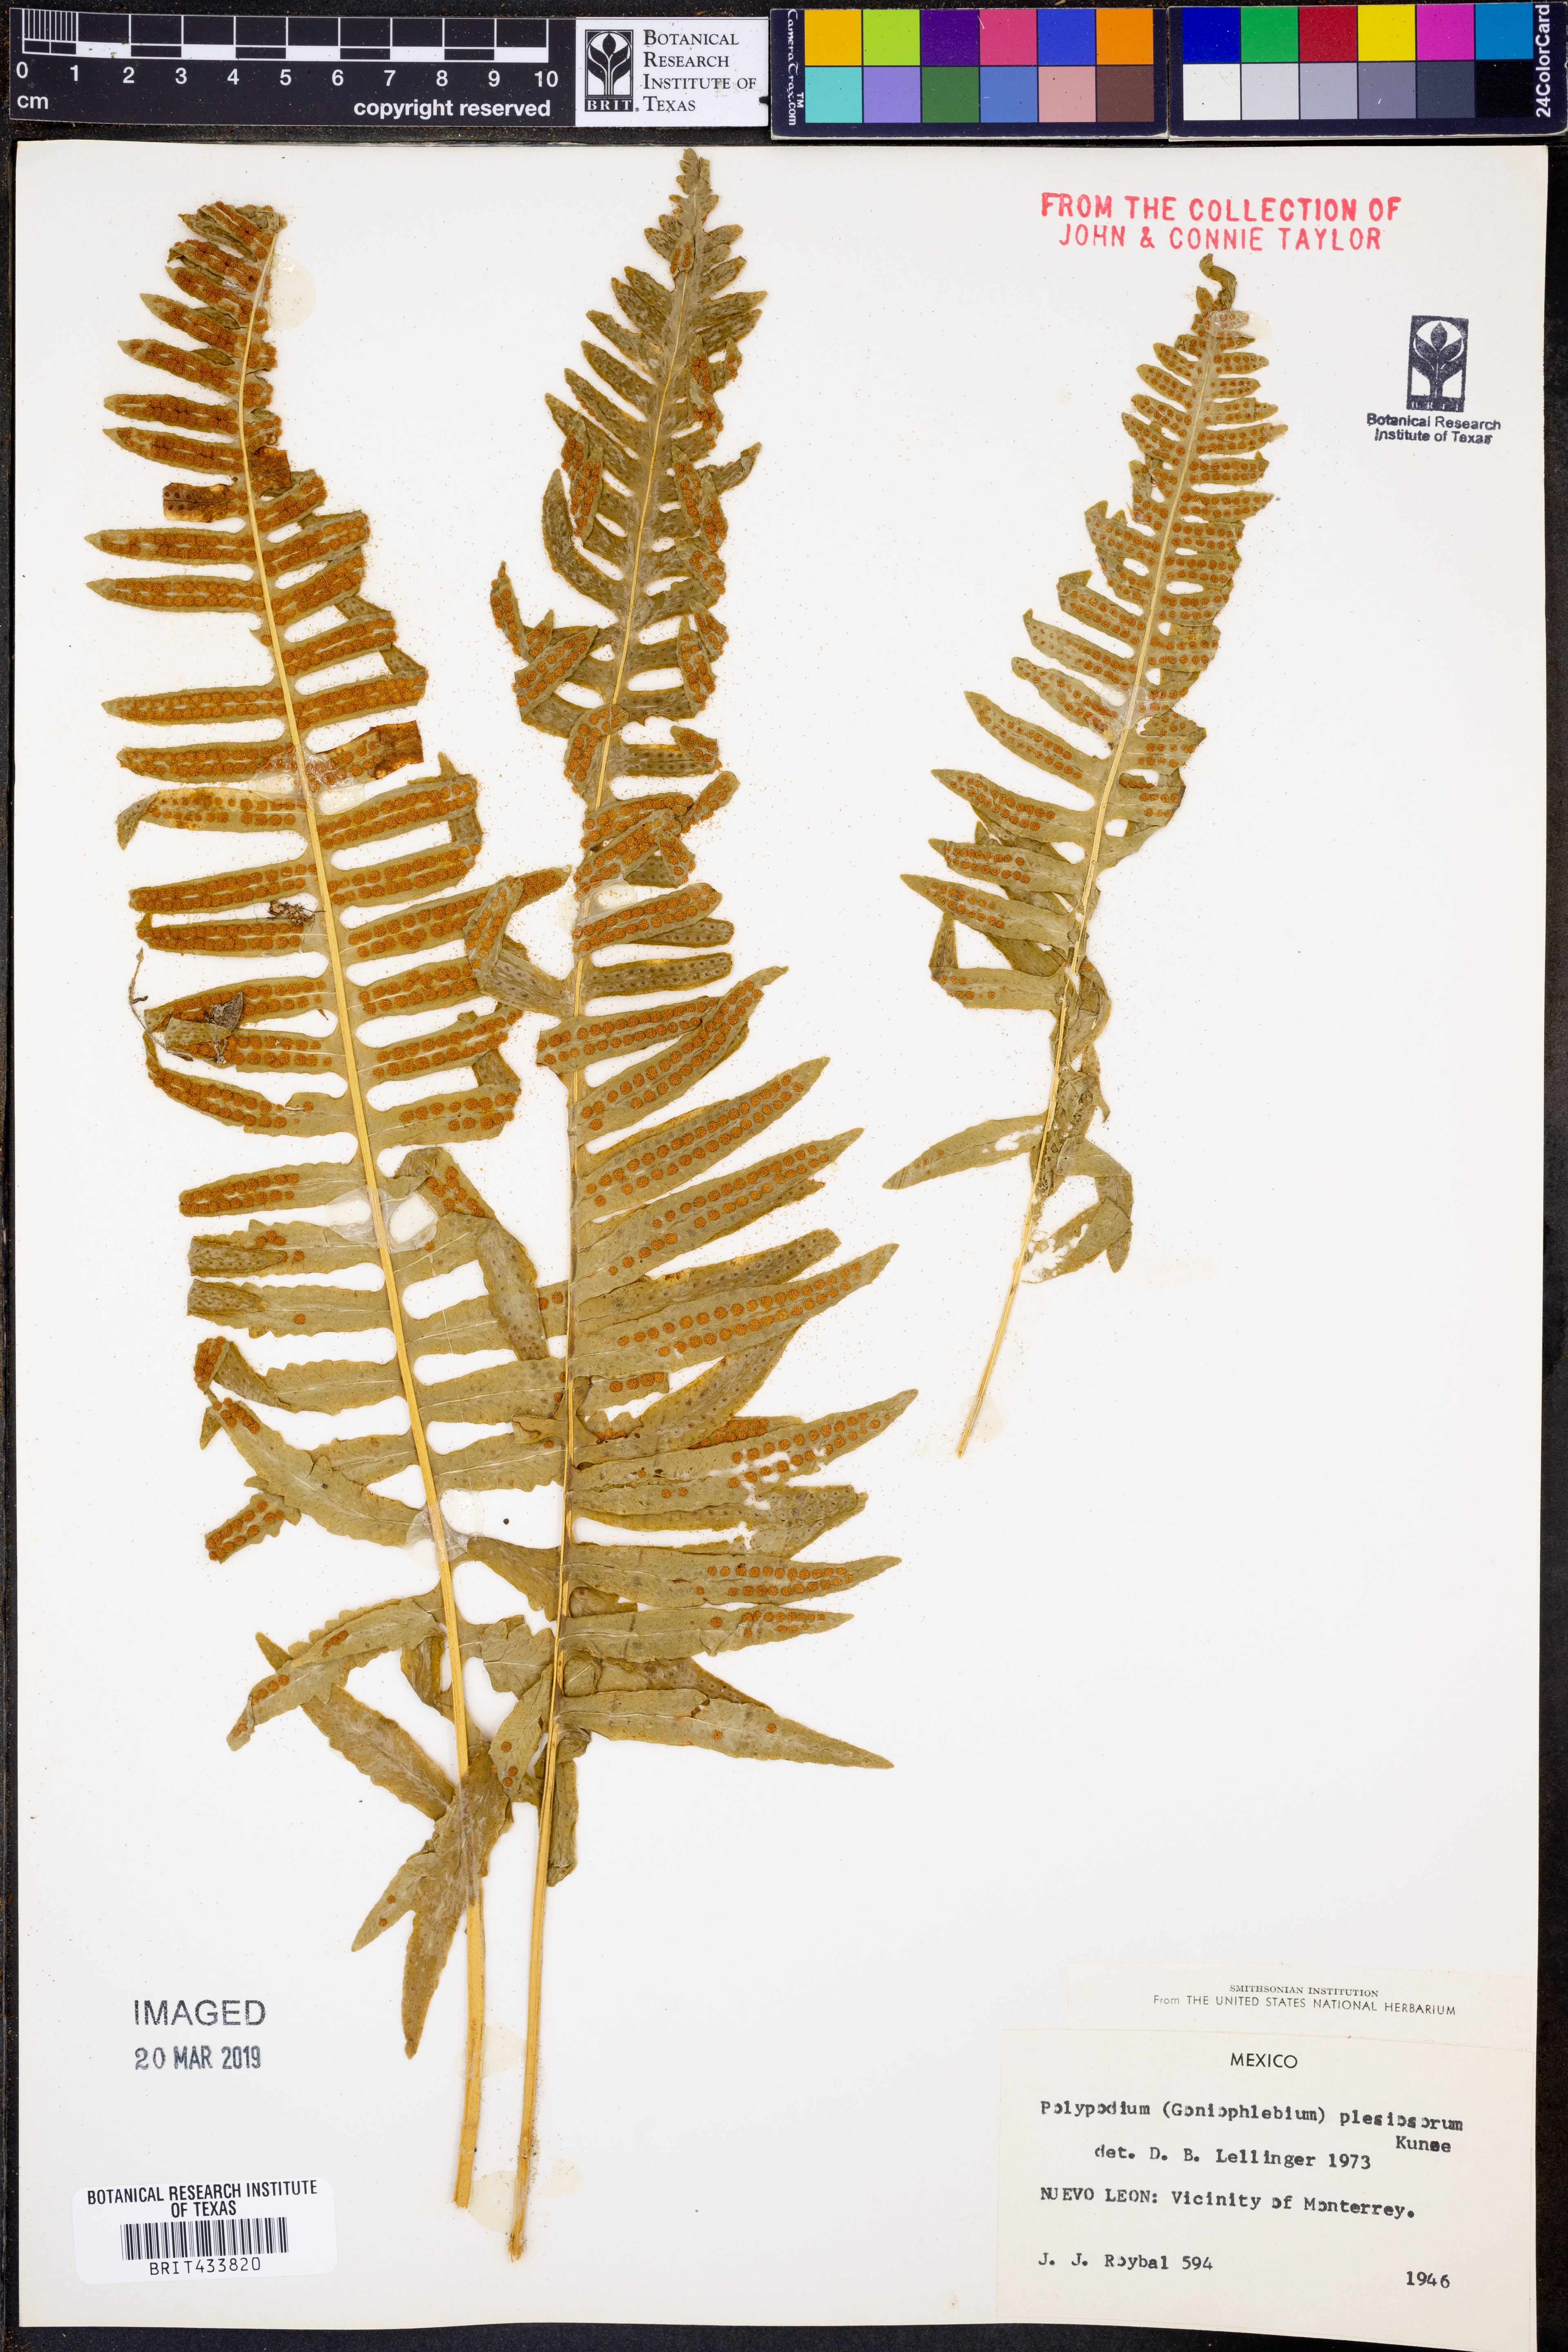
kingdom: Plantae
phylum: Tracheophyta
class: Polypodiopsida
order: Polypodiales
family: Polypodiaceae
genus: Polypodium
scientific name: Polypodium plesiosorum
